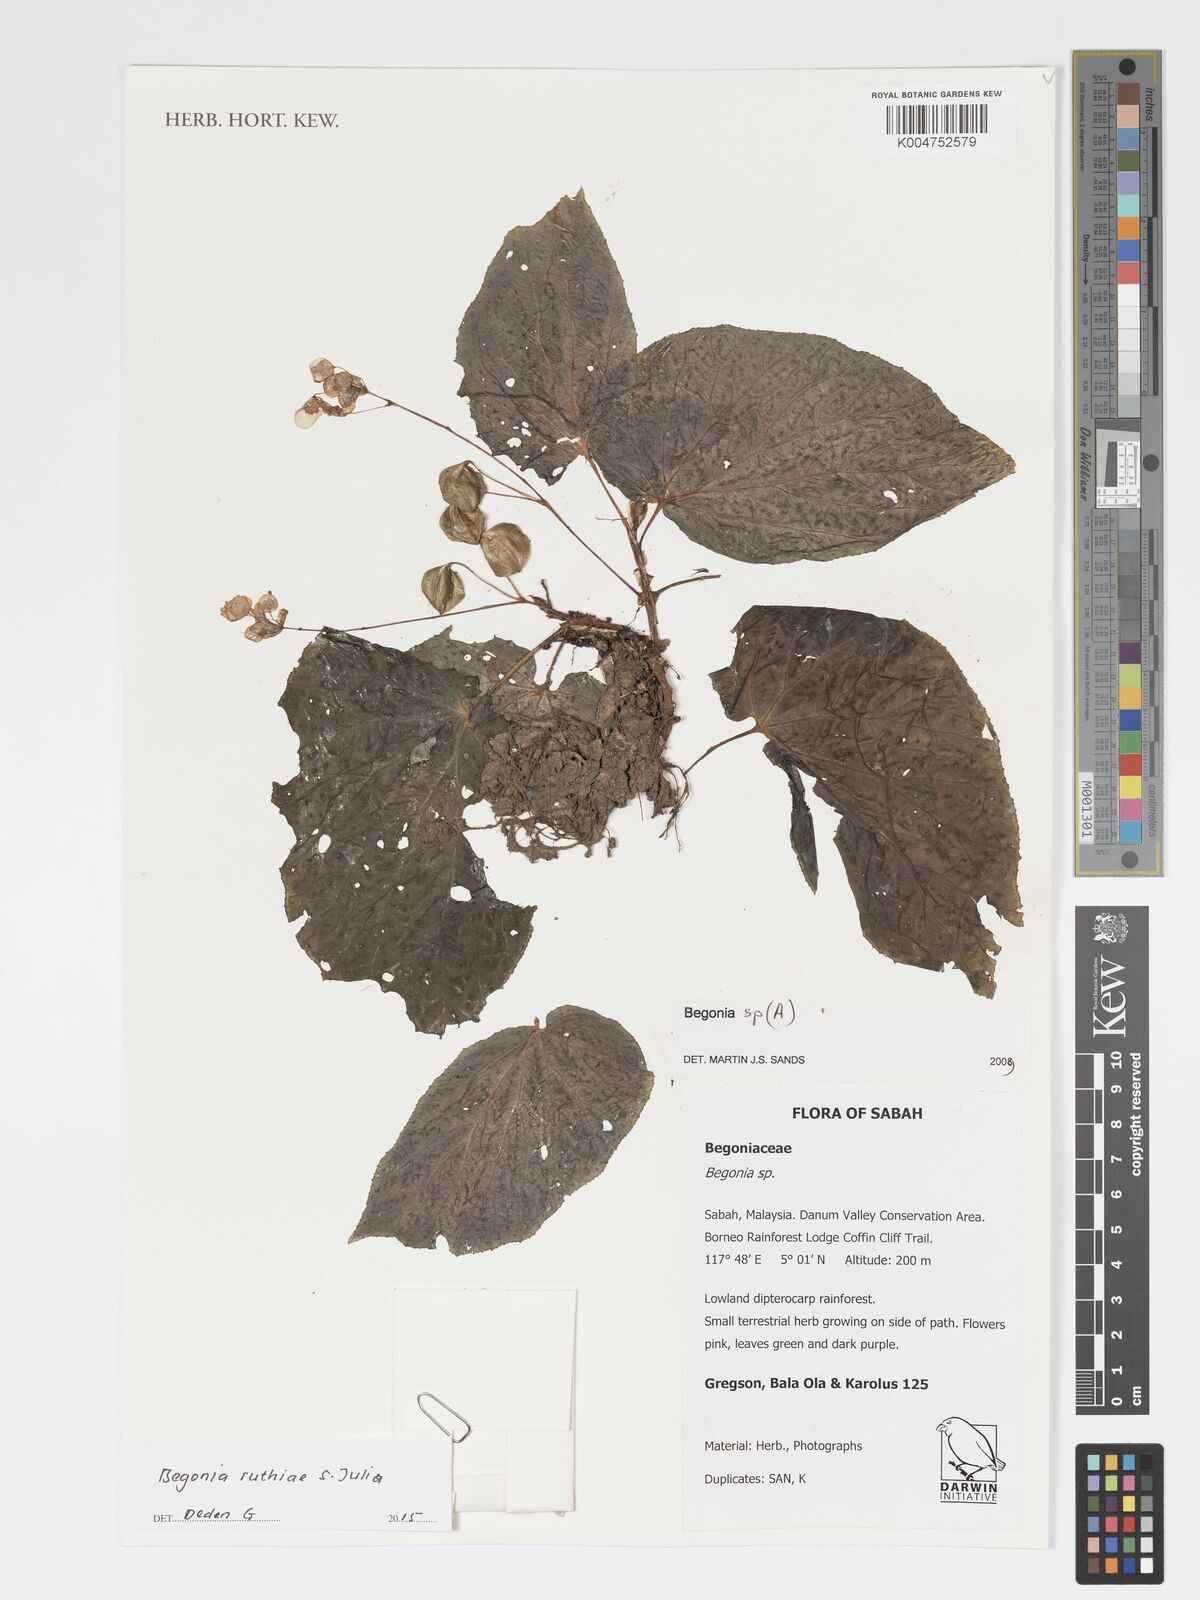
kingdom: Plantae
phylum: Tracheophyta
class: Magnoliopsida
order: Cucurbitales
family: Begoniaceae
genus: Begonia
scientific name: Begonia ruthiae
